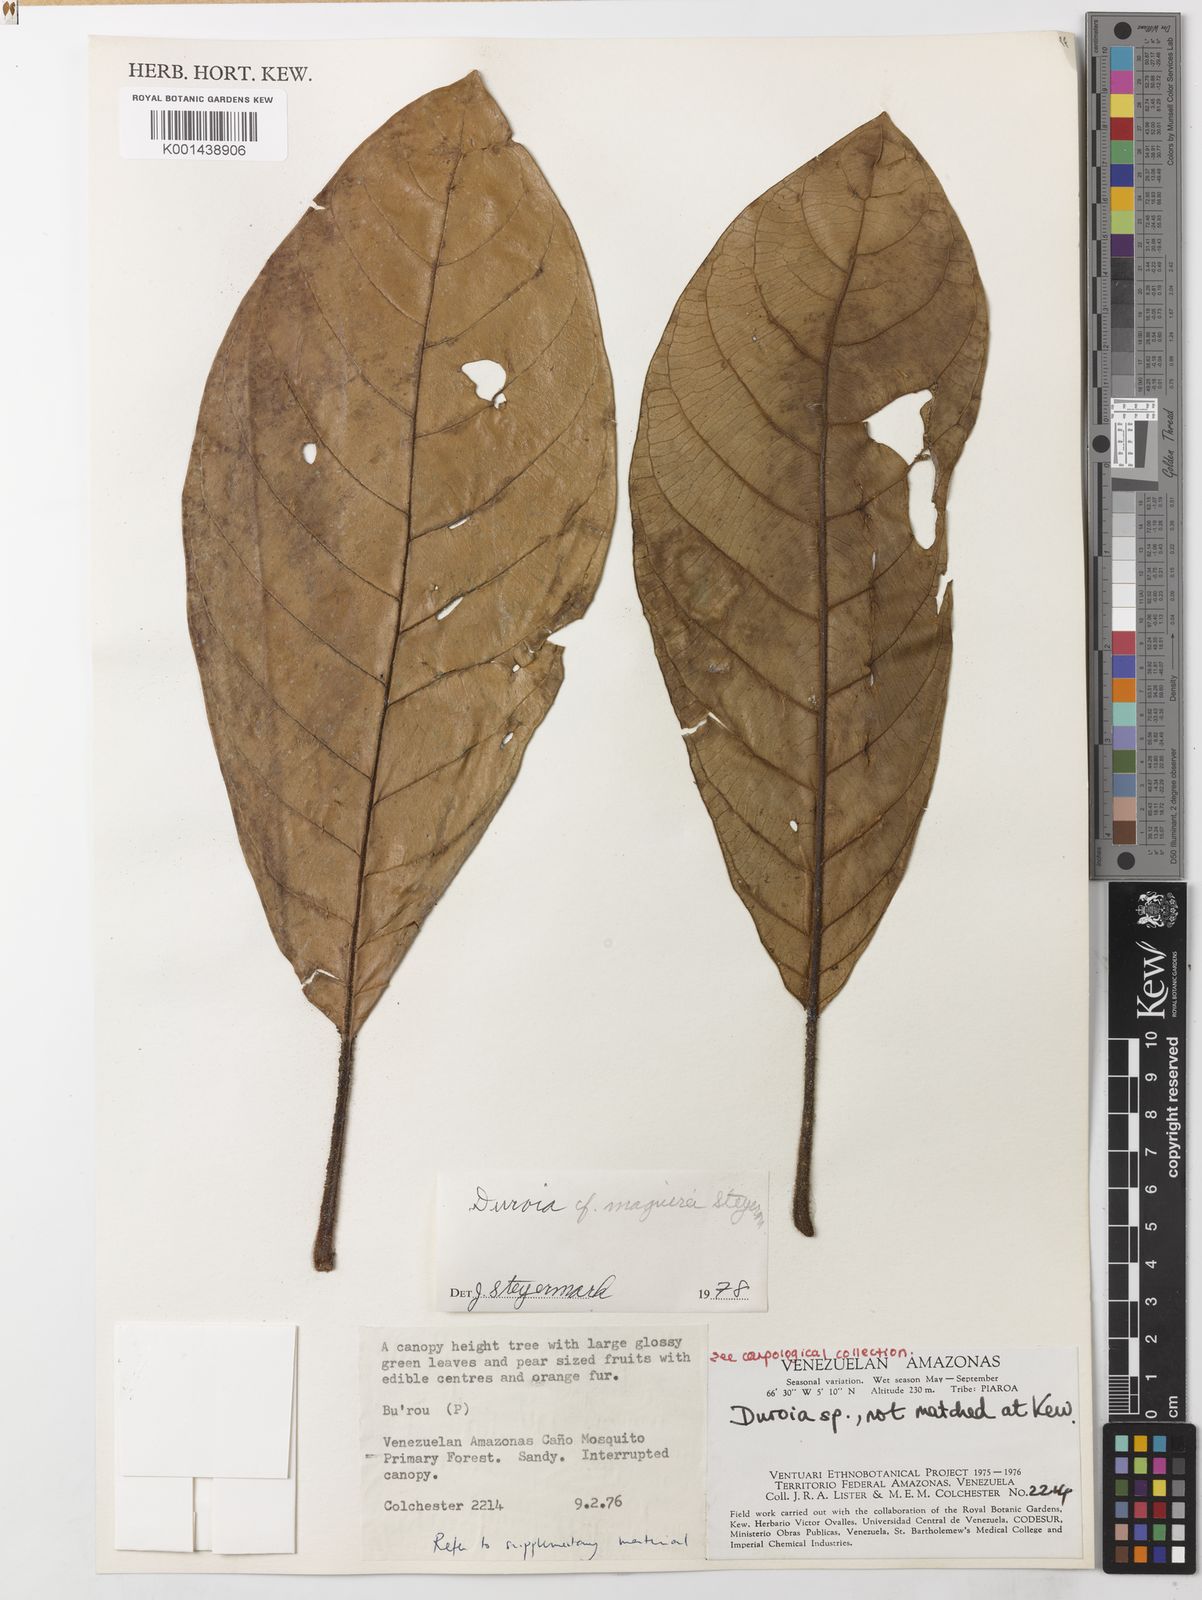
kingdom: Plantae
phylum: Tracheophyta
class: Magnoliopsida
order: Gentianales
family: Rubiaceae
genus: Duroia
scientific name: Duroia maguirei
